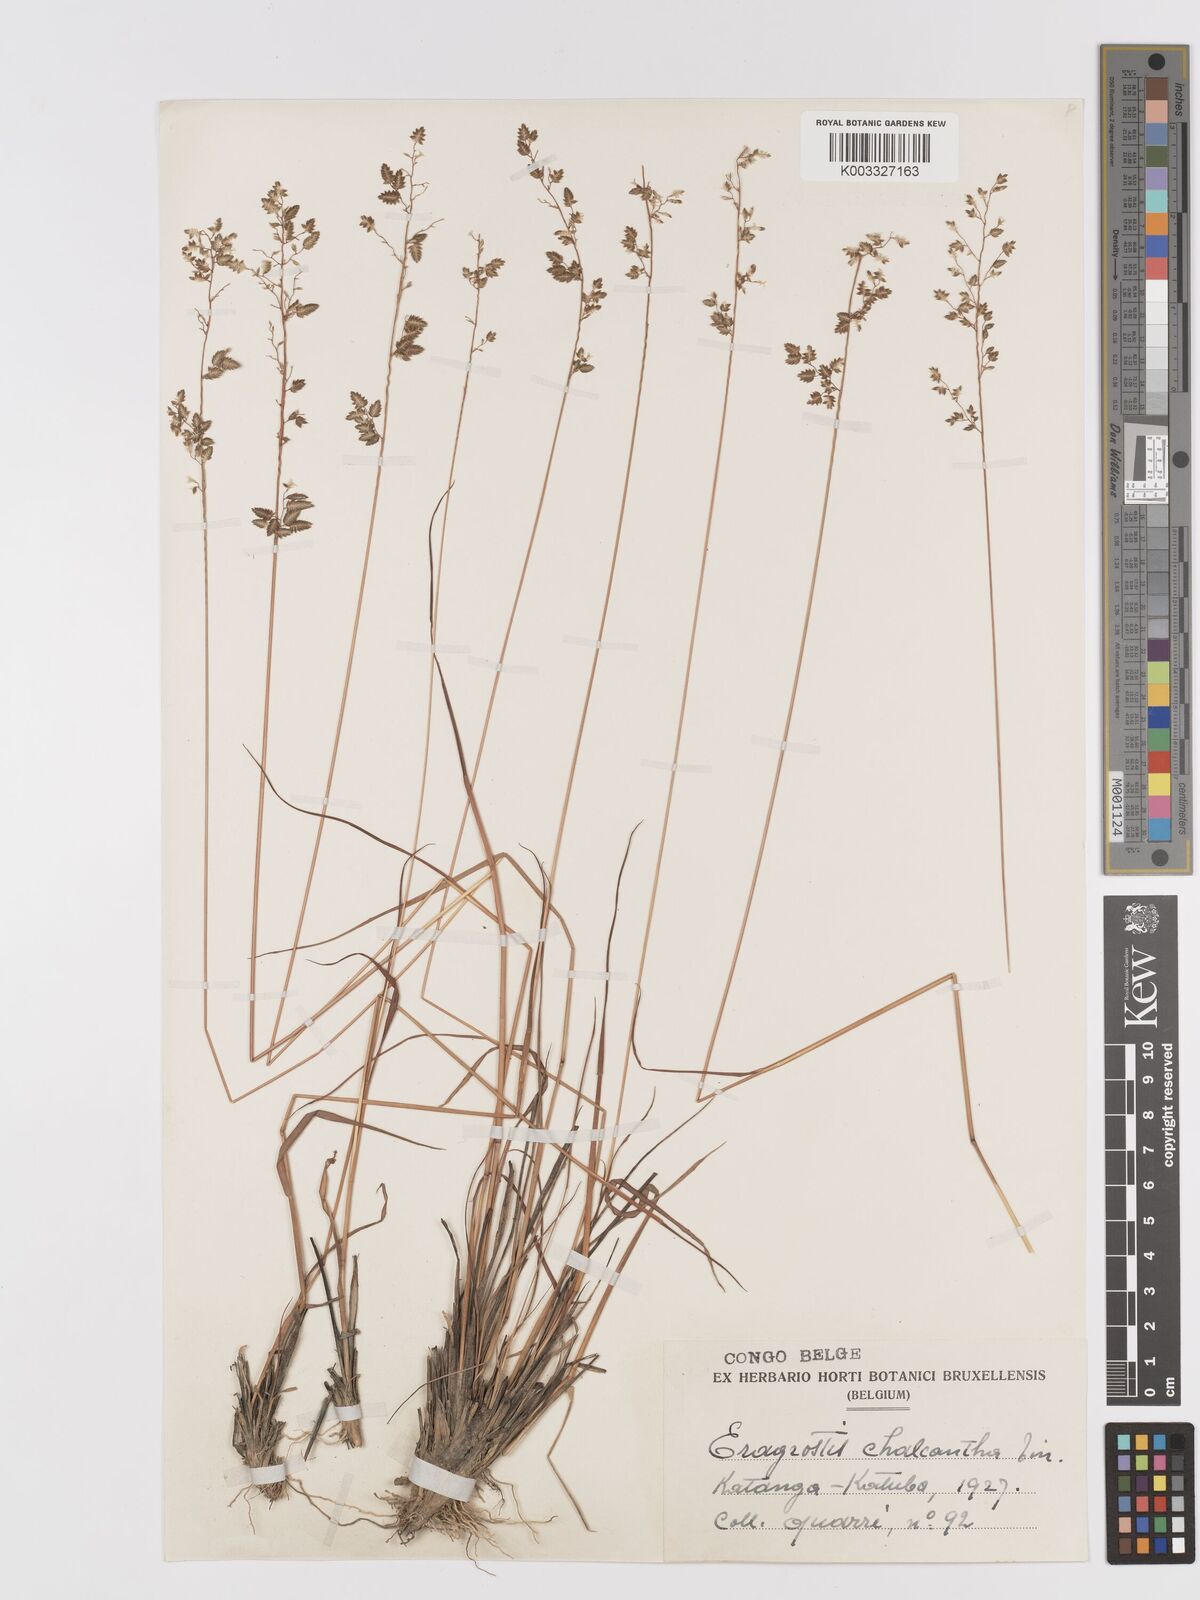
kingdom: Plantae
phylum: Tracheophyta
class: Liliopsida
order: Poales
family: Poaceae
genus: Eragrostis
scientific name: Eragrostis racemosa
